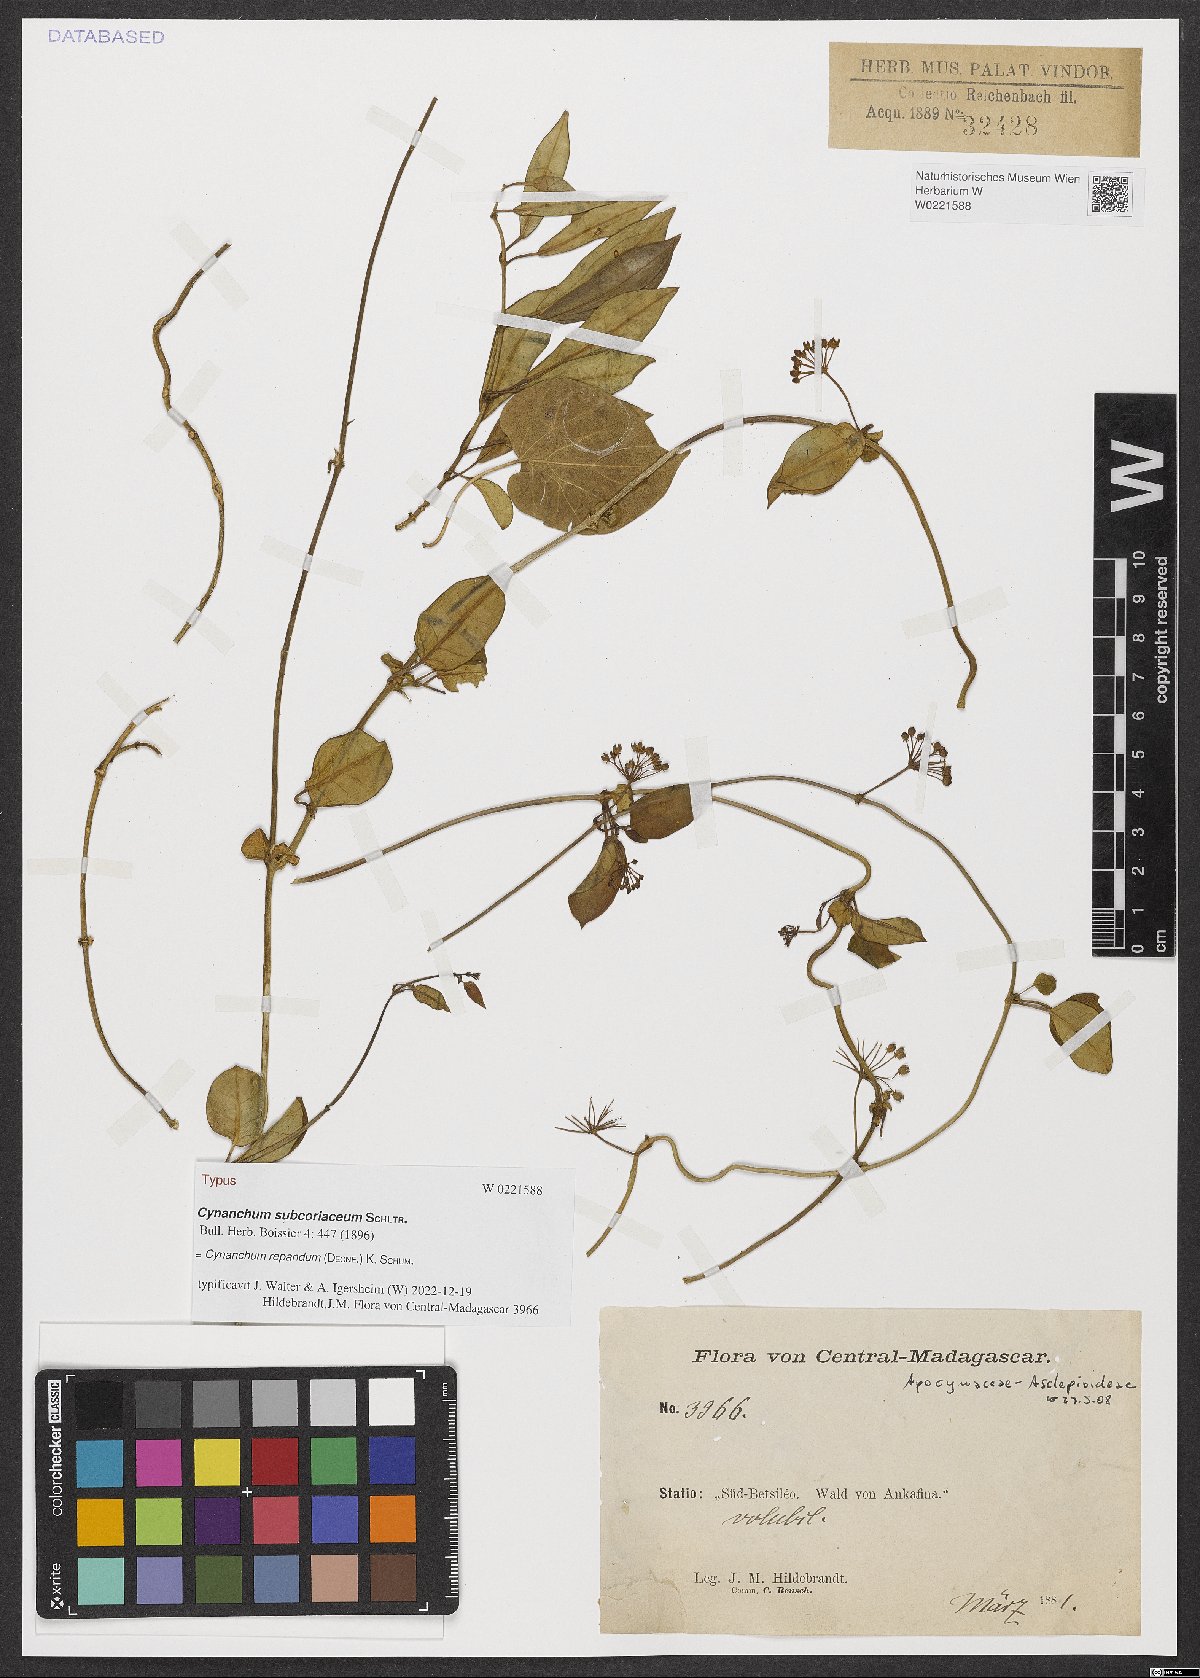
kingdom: Plantae
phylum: Tracheophyta
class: Magnoliopsida
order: Gentianales
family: Apocynaceae
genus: Cynanchum
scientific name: Cynanchum repandum
